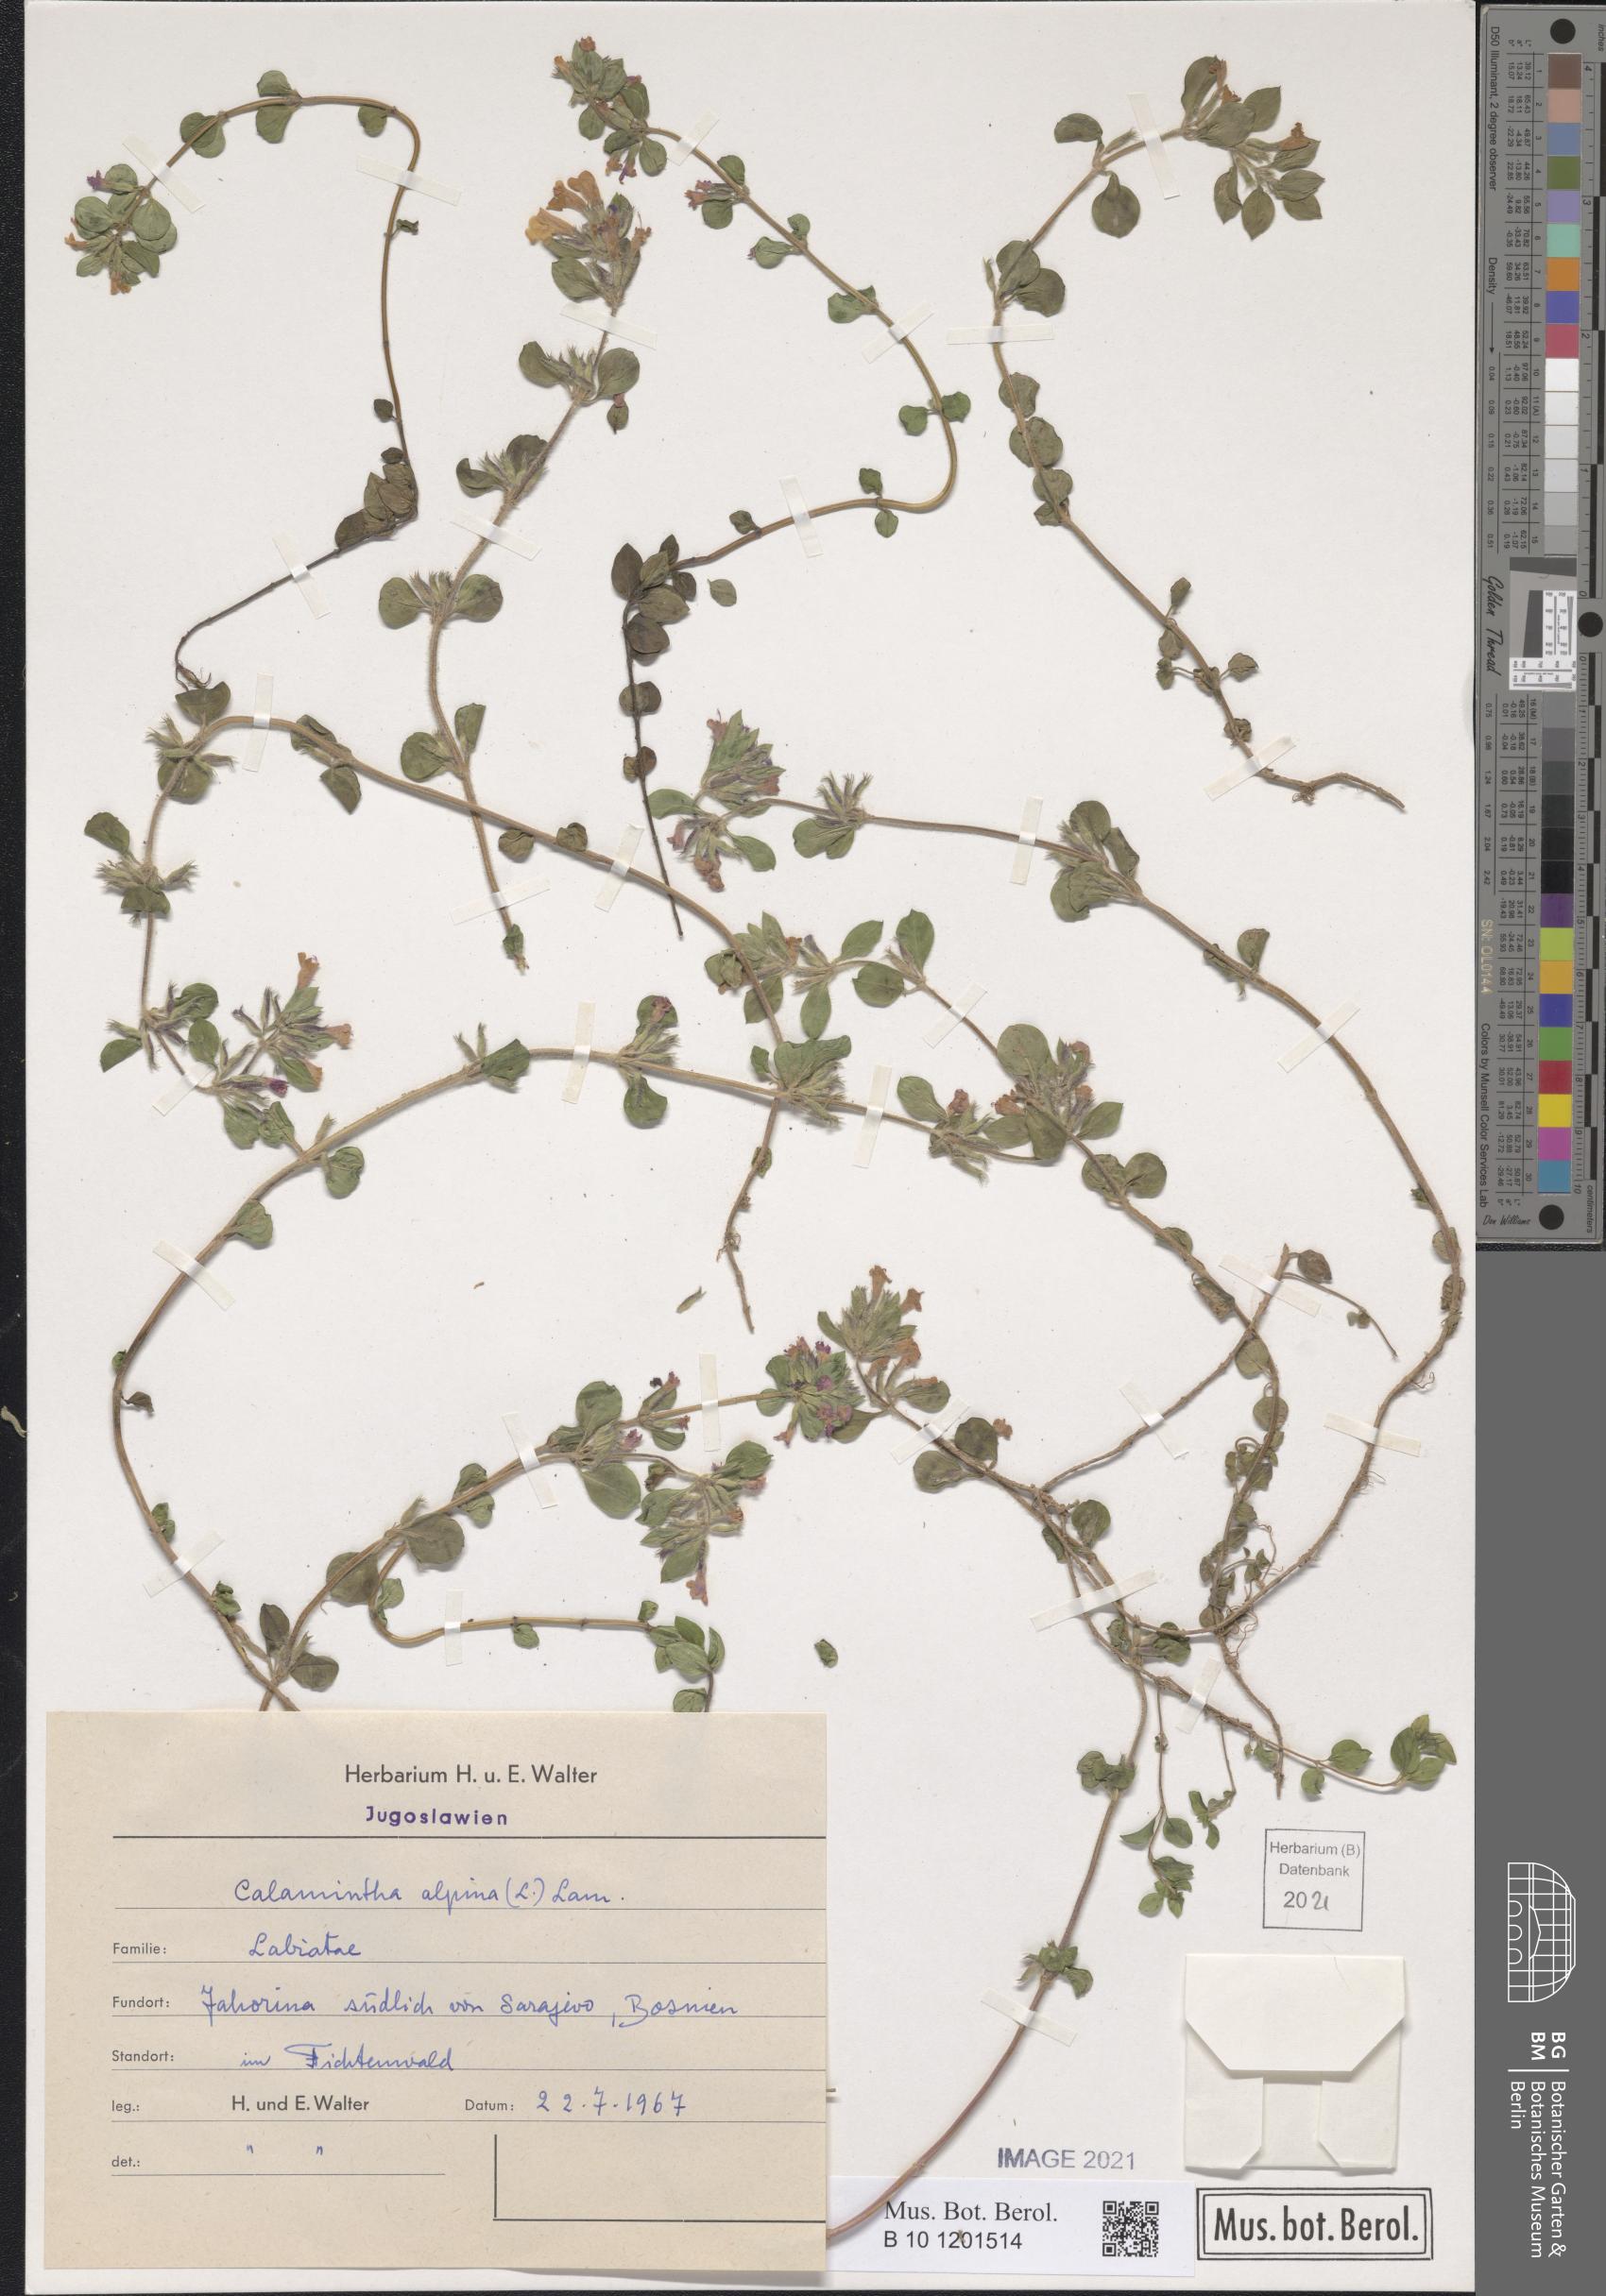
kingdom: Plantae
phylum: Tracheophyta
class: Magnoliopsida
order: Lamiales
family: Lamiaceae
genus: Clinopodium
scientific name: Clinopodium alpinum
